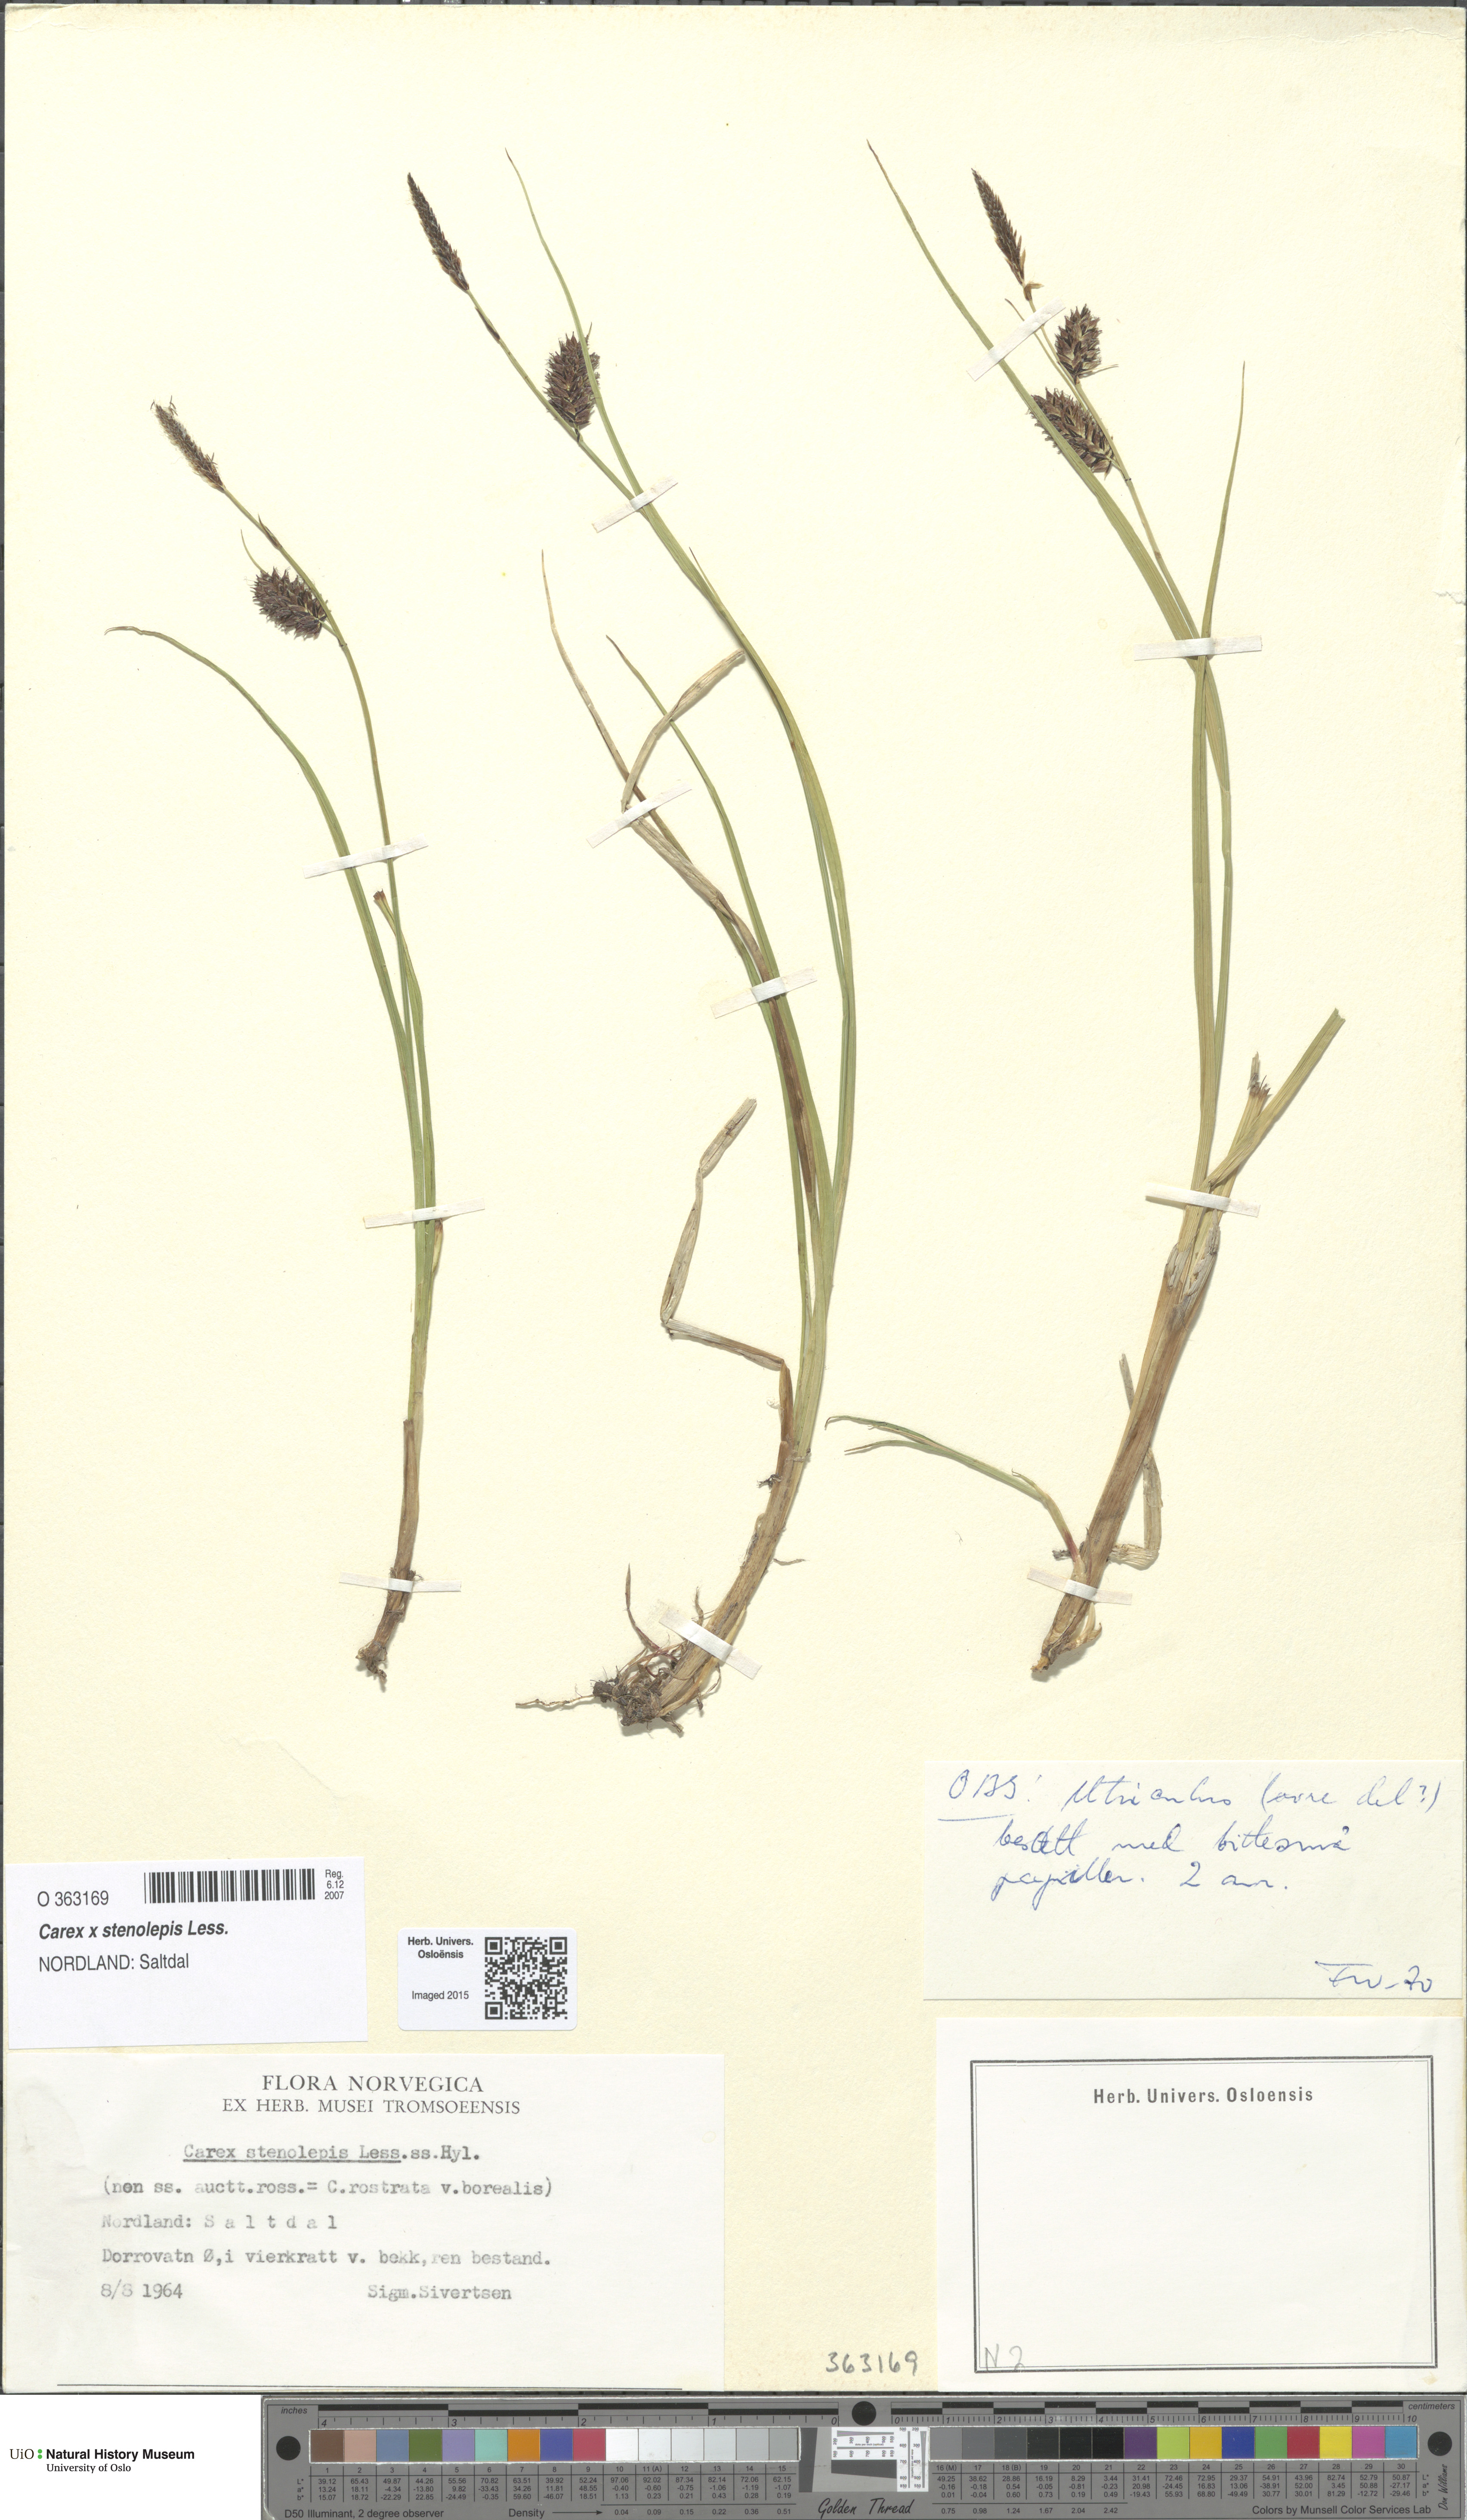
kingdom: Plantae
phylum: Tracheophyta
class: Liliopsida
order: Poales
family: Cyperaceae
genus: Carex
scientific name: Carex grahamii
